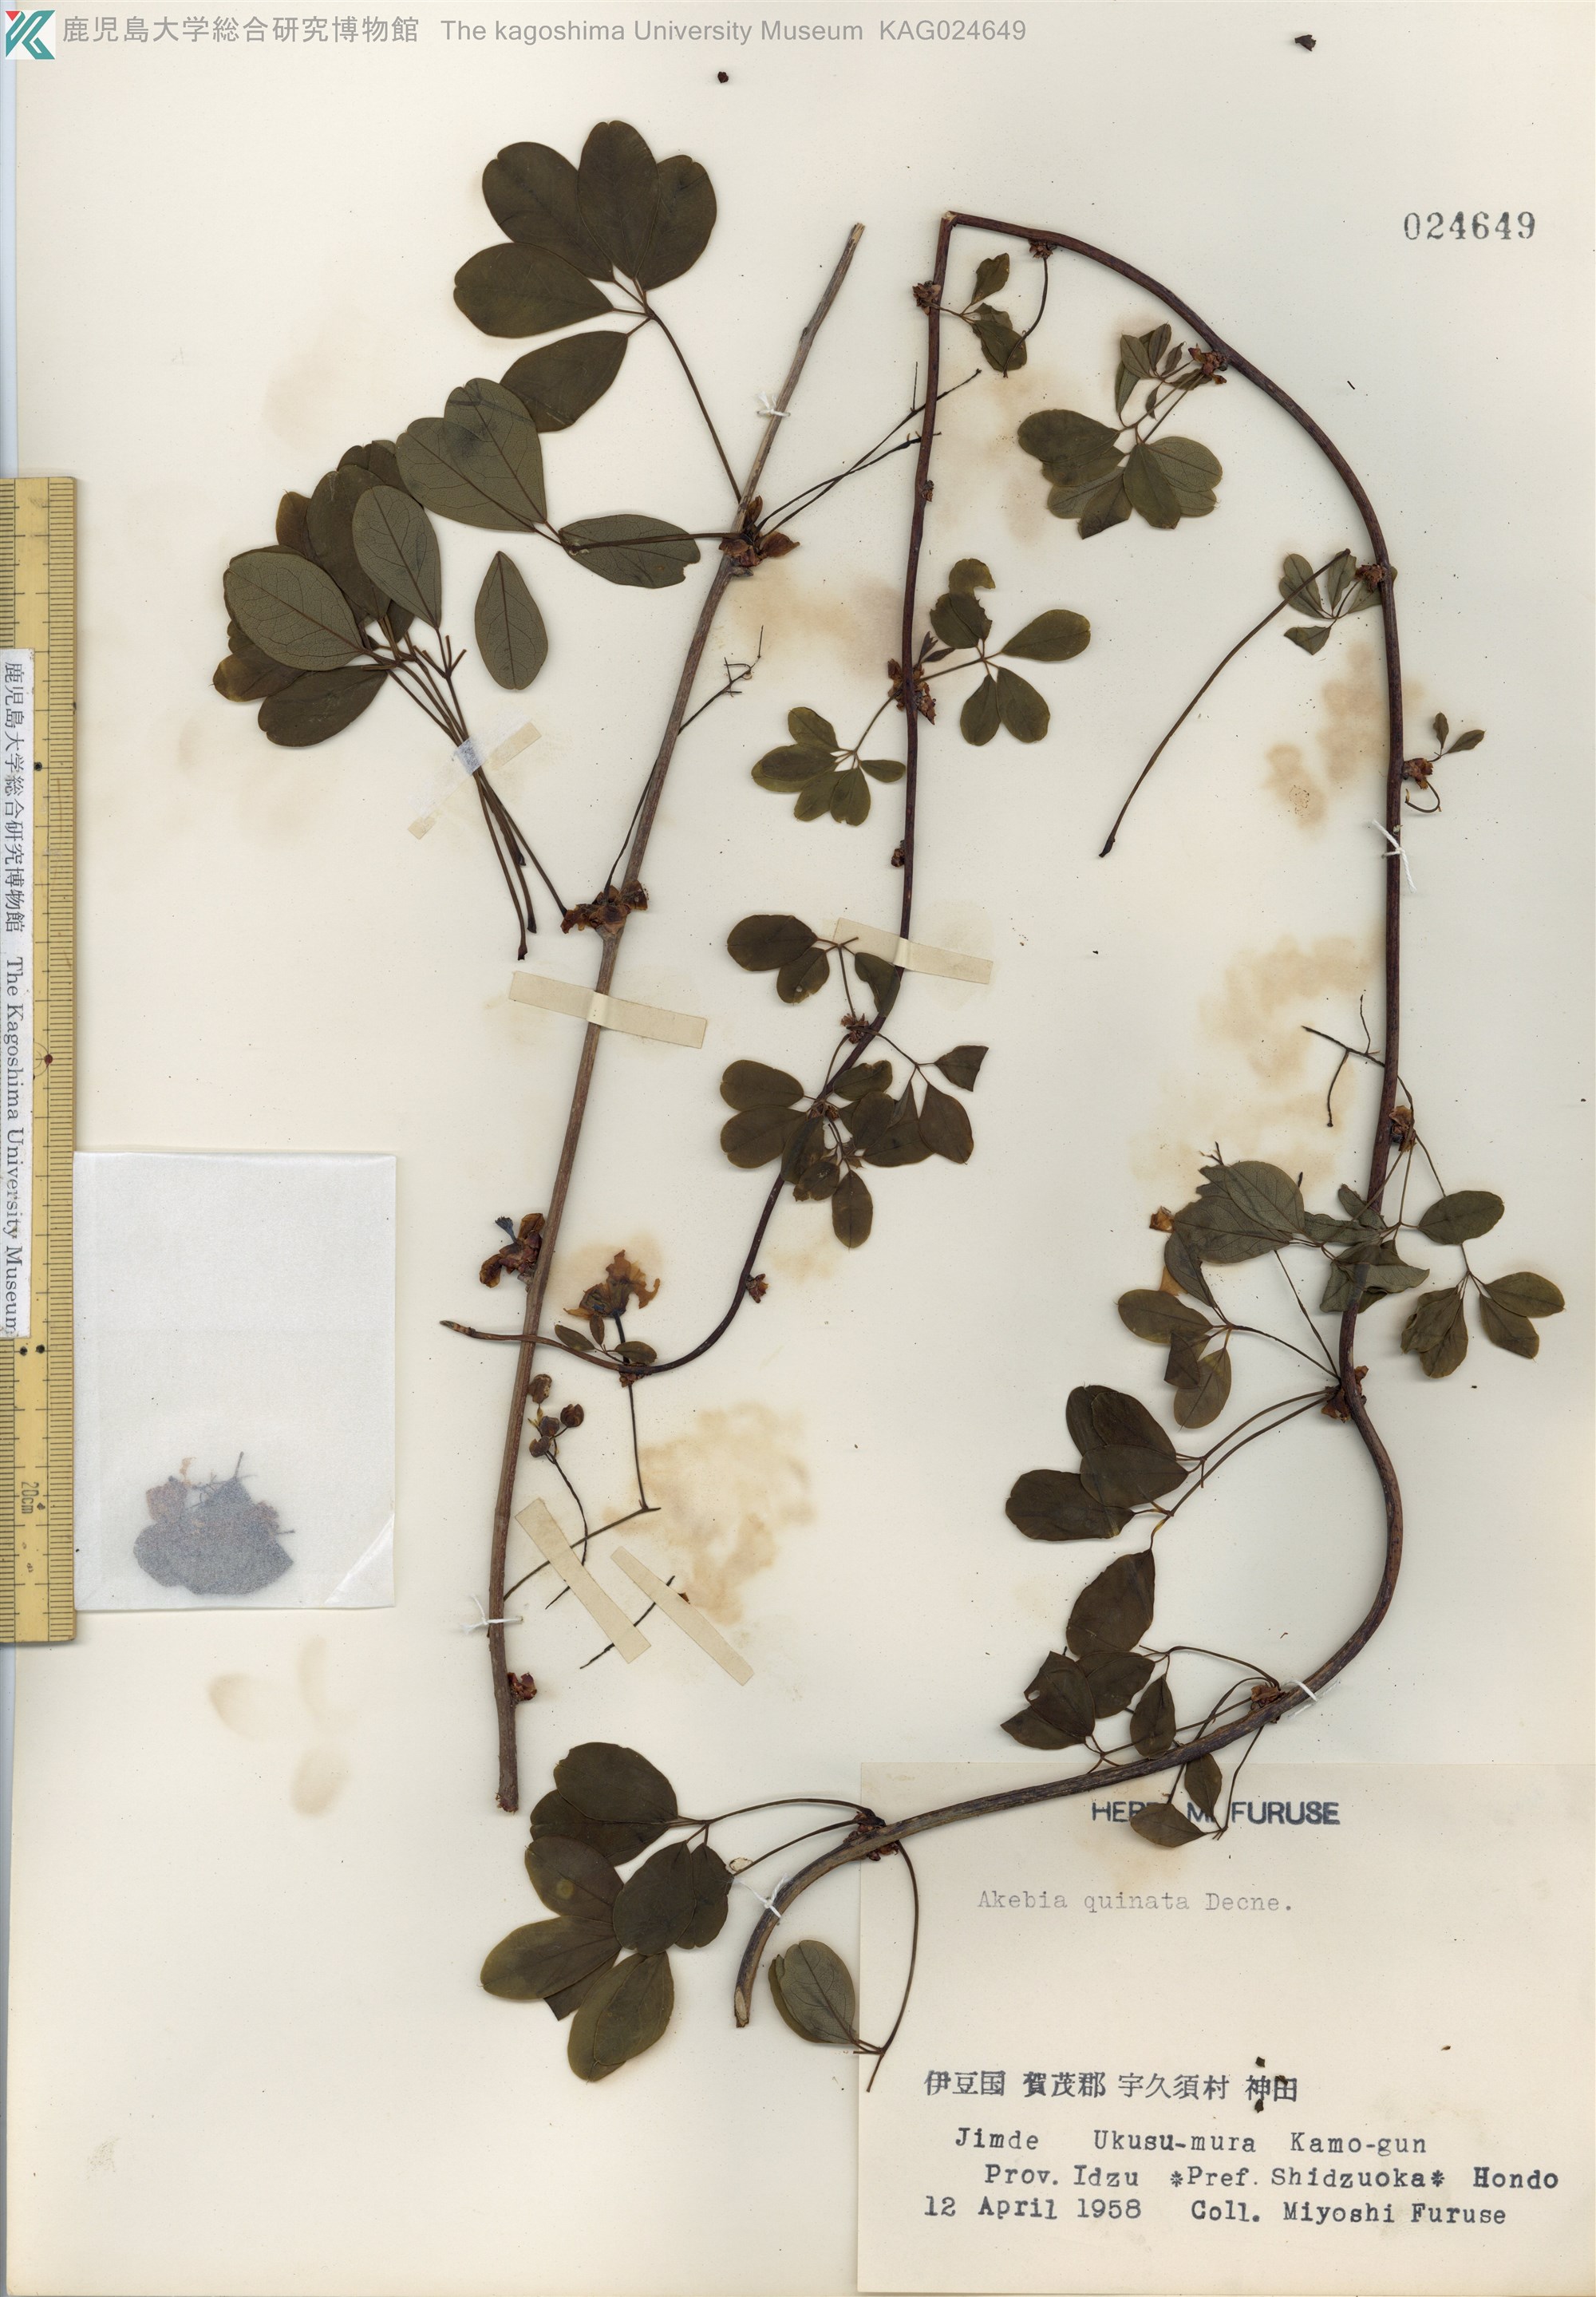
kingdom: Plantae
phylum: Tracheophyta
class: Magnoliopsida
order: Ranunculales
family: Lardizabalaceae
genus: Akebia
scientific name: Akebia quinata
